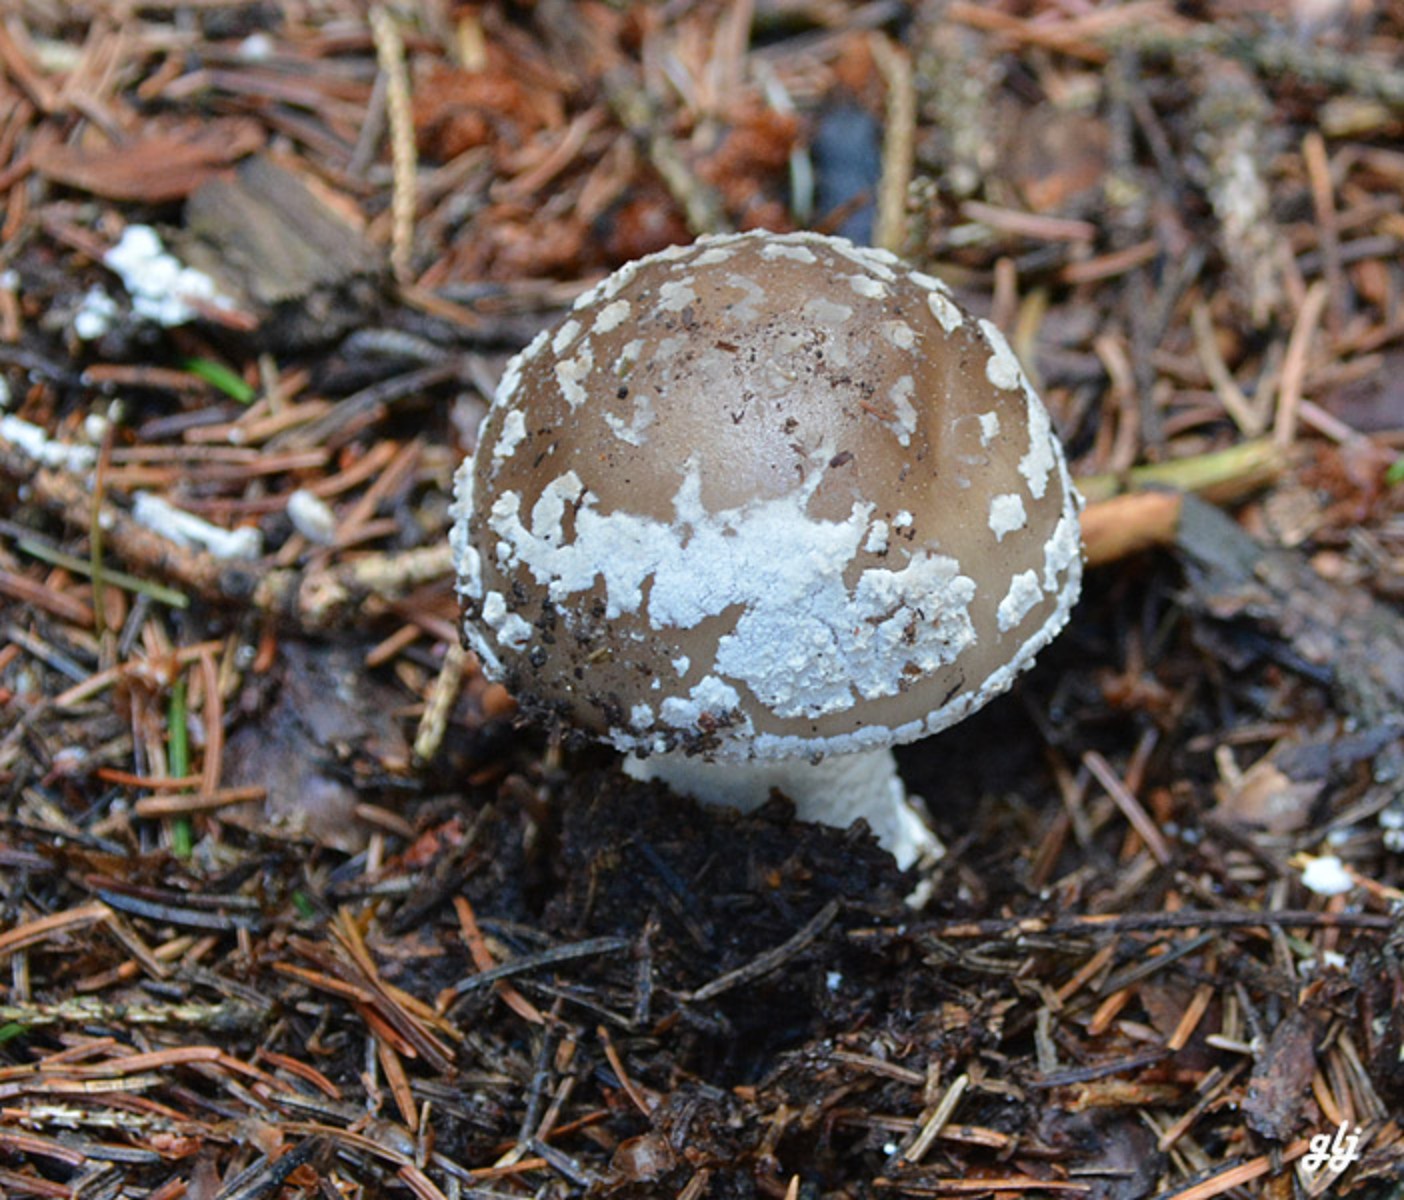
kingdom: Fungi
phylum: Basidiomycota
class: Agaricomycetes
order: Agaricales
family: Amanitaceae
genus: Amanita
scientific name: Amanita pantherina
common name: panter-fluesvamp
